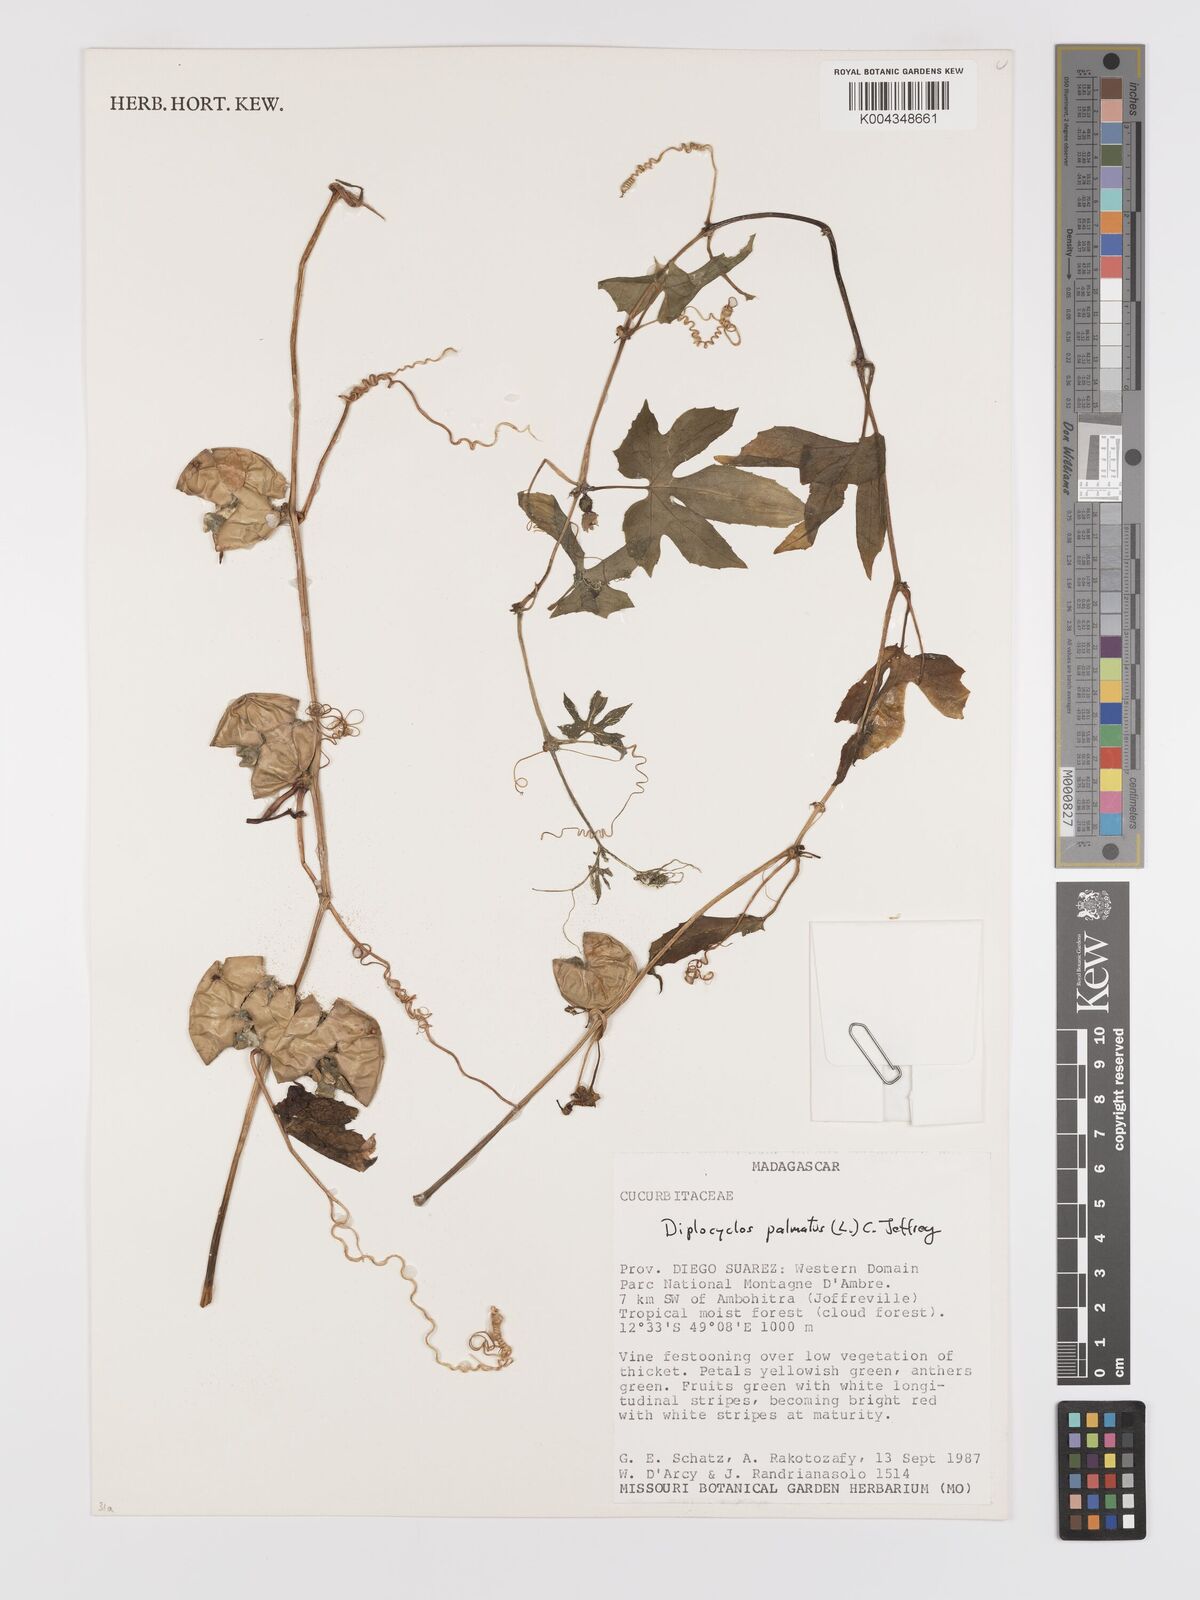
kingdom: Plantae
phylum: Tracheophyta
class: Magnoliopsida
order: Cucurbitales
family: Cucurbitaceae
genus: Diplocyclos
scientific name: Diplocyclos palmatus
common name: Striped-cucumber
